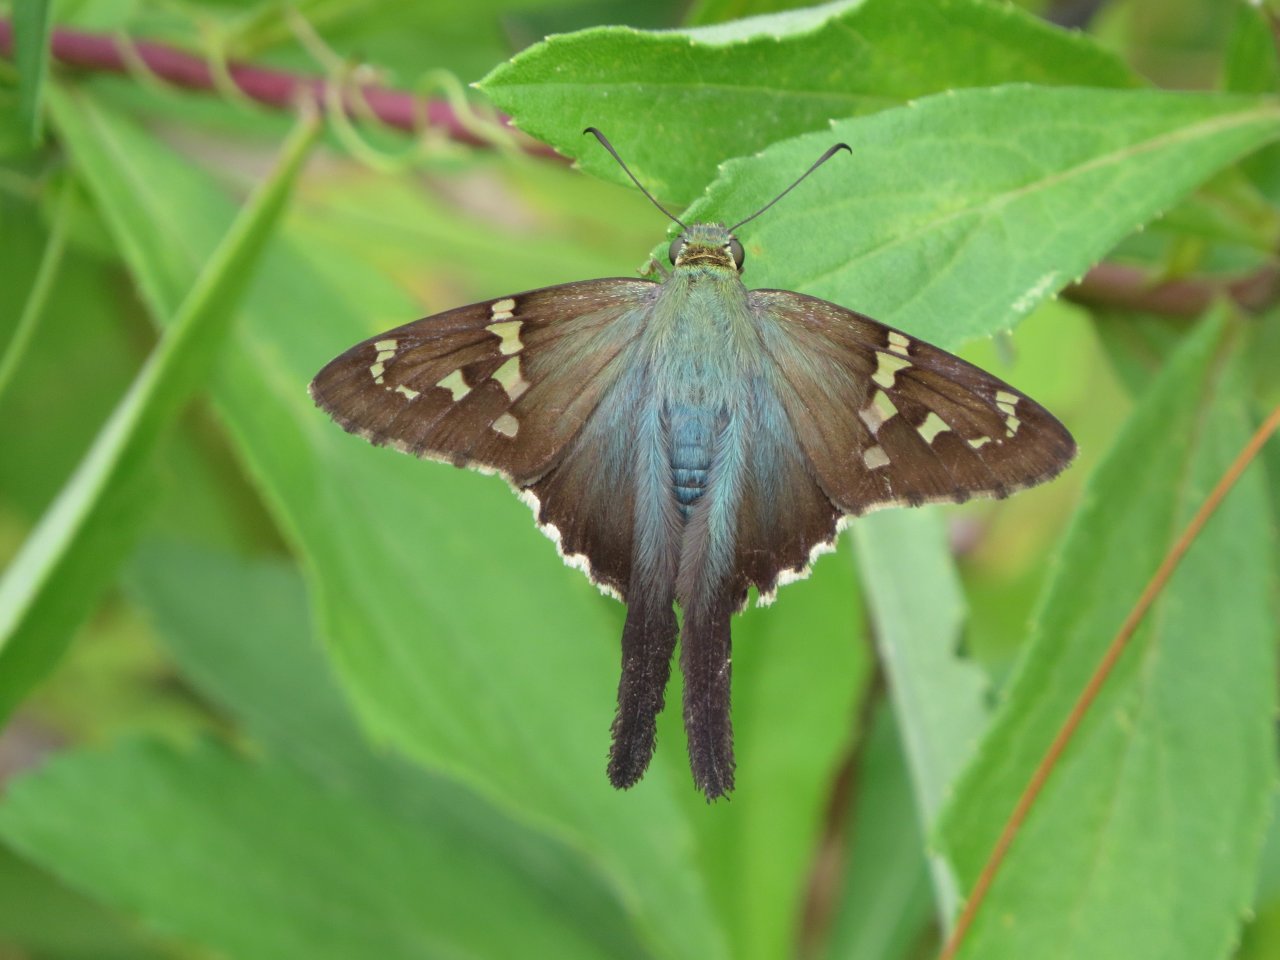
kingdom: Animalia
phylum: Arthropoda
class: Insecta
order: Lepidoptera
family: Hesperiidae
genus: Urbanus
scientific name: Urbanus proteus
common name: Long-tailed Skipper
